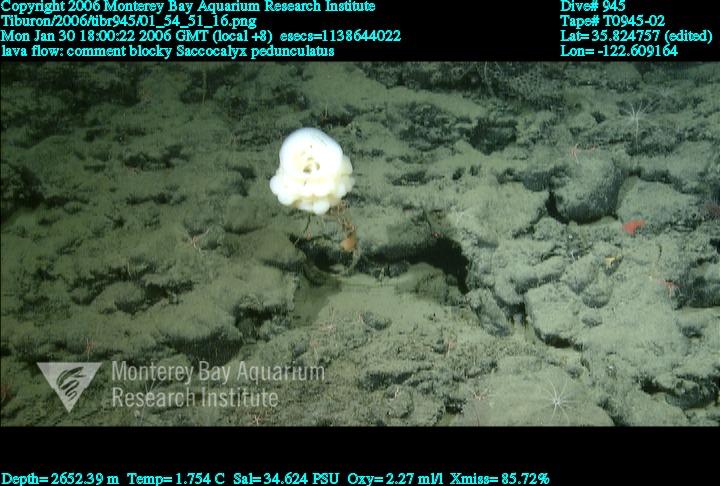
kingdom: Animalia
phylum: Porifera
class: Hexactinellida
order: Lyssacinosida
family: Euplectellidae
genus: Saccocalyx
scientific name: Saccocalyx pedunculatus
